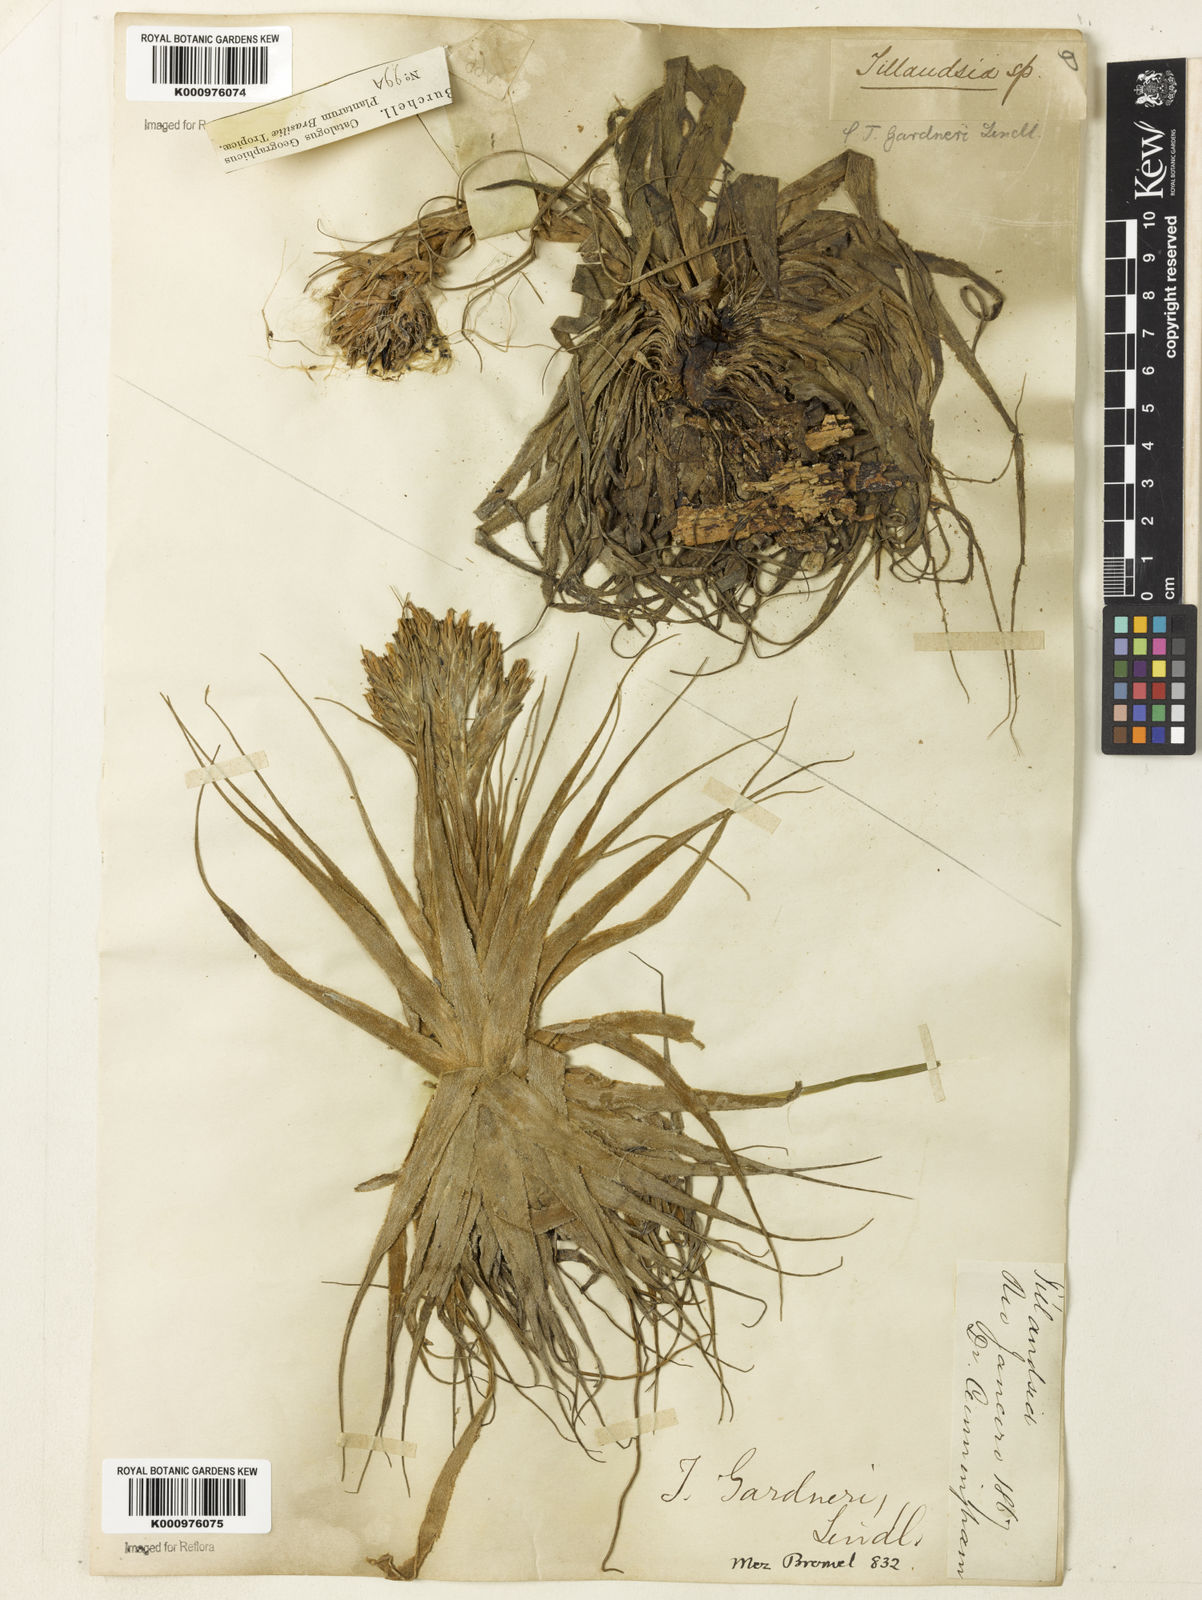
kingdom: Plantae
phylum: Tracheophyta
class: Liliopsida
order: Poales
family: Bromeliaceae
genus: Tillandsia
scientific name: Tillandsia gardneri
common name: Airplant
